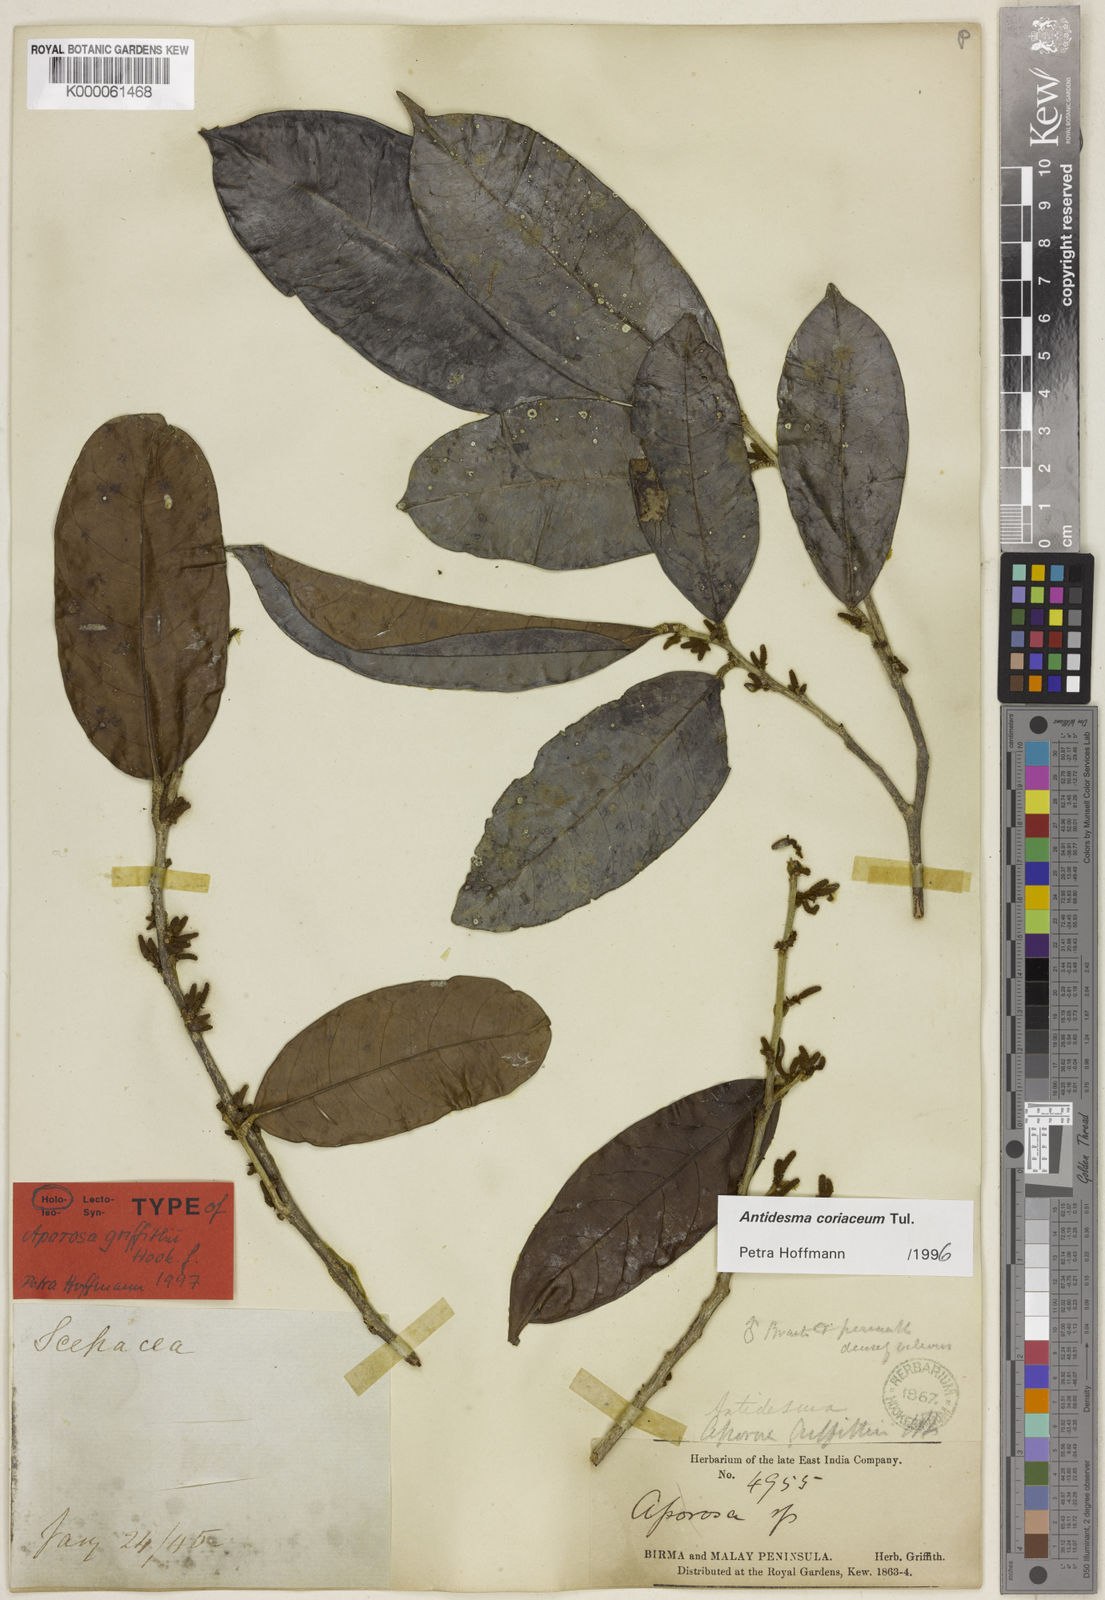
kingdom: Plantae
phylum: Tracheophyta
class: Magnoliopsida
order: Malpighiales
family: Phyllanthaceae
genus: Antidesma
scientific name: Antidesma coriaceum
